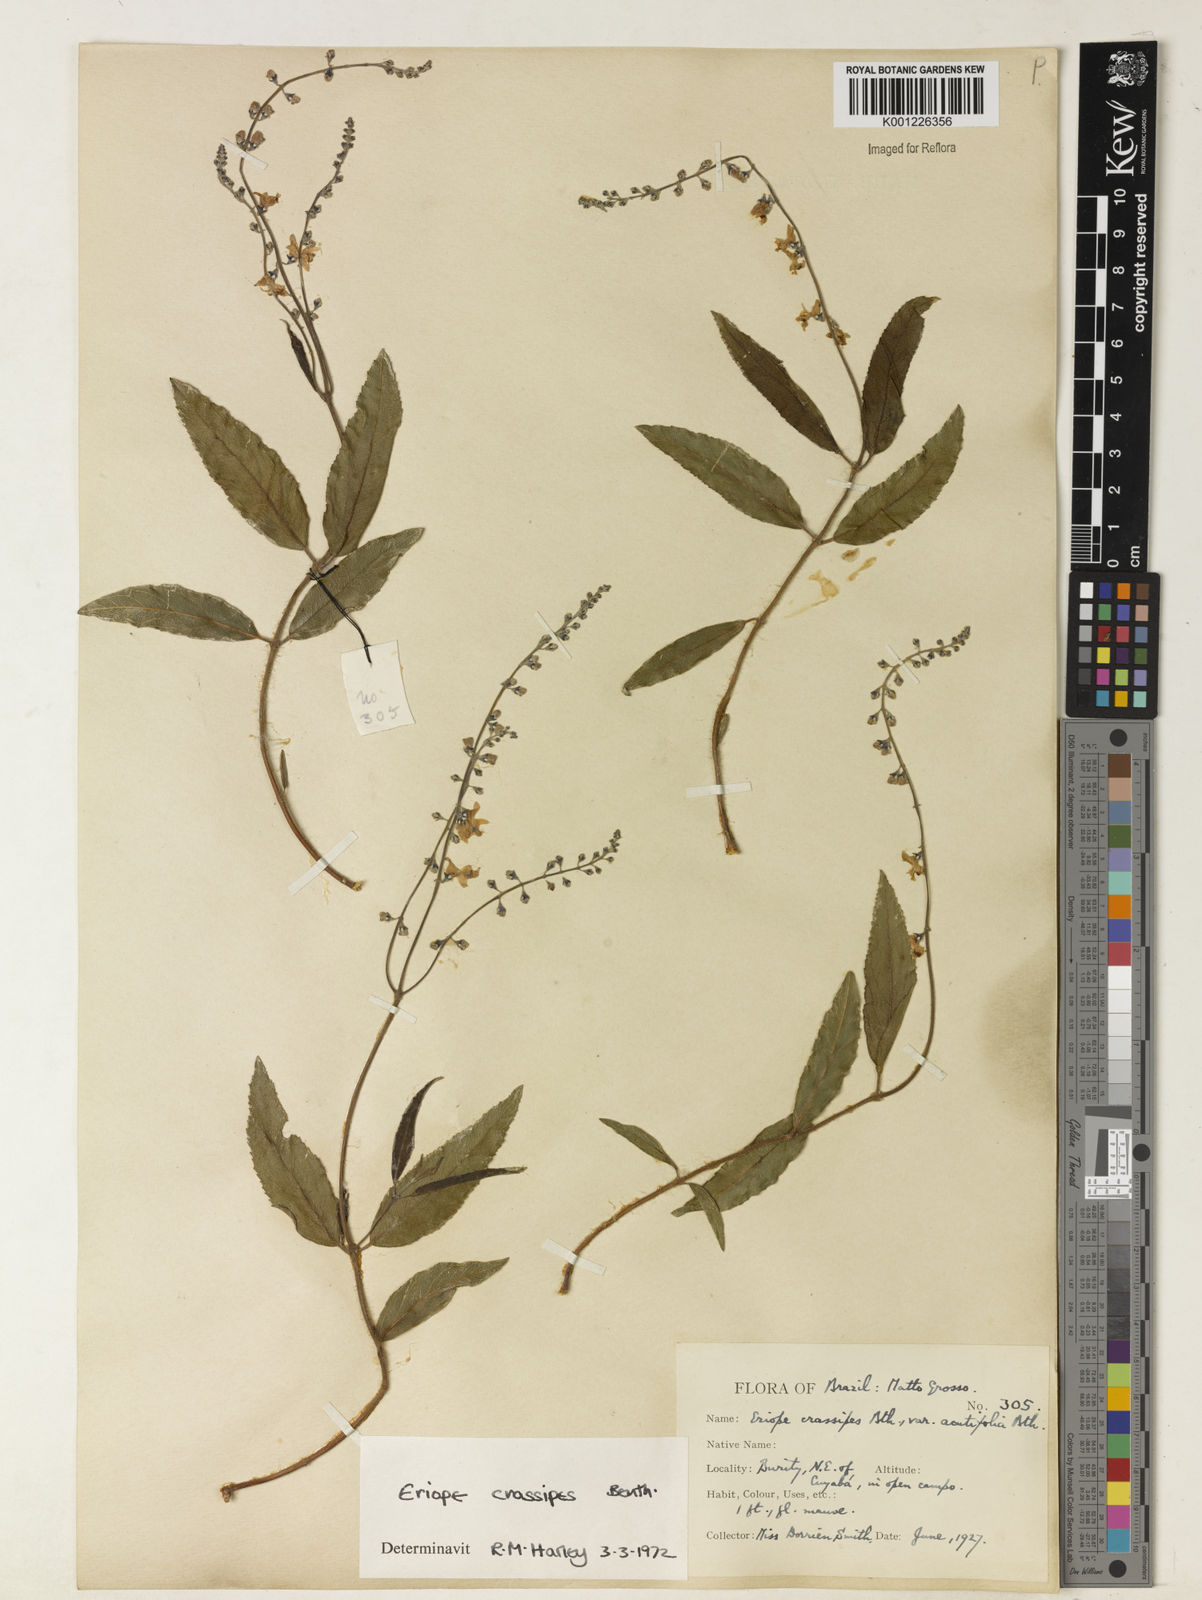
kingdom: Plantae
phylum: Tracheophyta
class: Magnoliopsida
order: Lamiales
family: Lamiaceae
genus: Eriope
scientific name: Eriope crassipes
